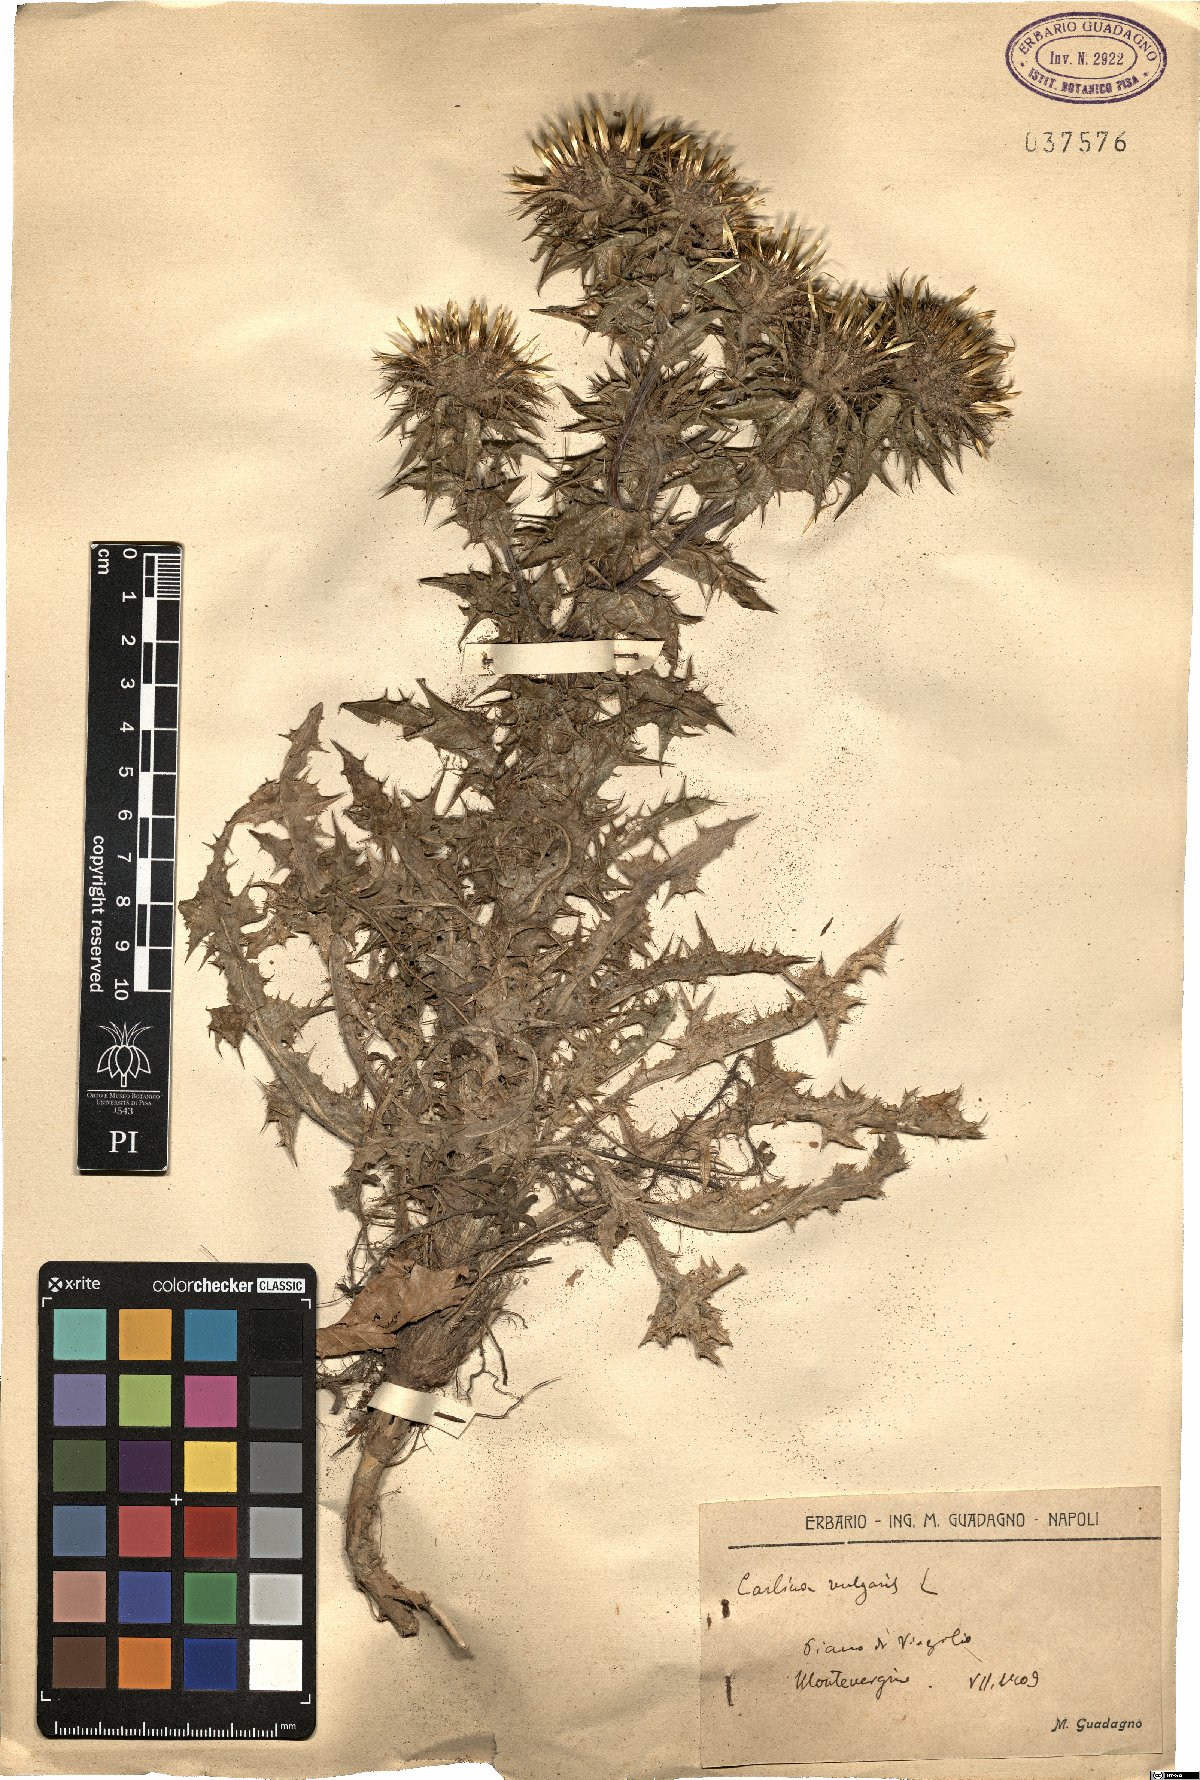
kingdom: Plantae
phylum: Tracheophyta
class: Magnoliopsida
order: Asterales
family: Asteraceae
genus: Carlina
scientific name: Carlina vulgaris
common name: Carline thistle
